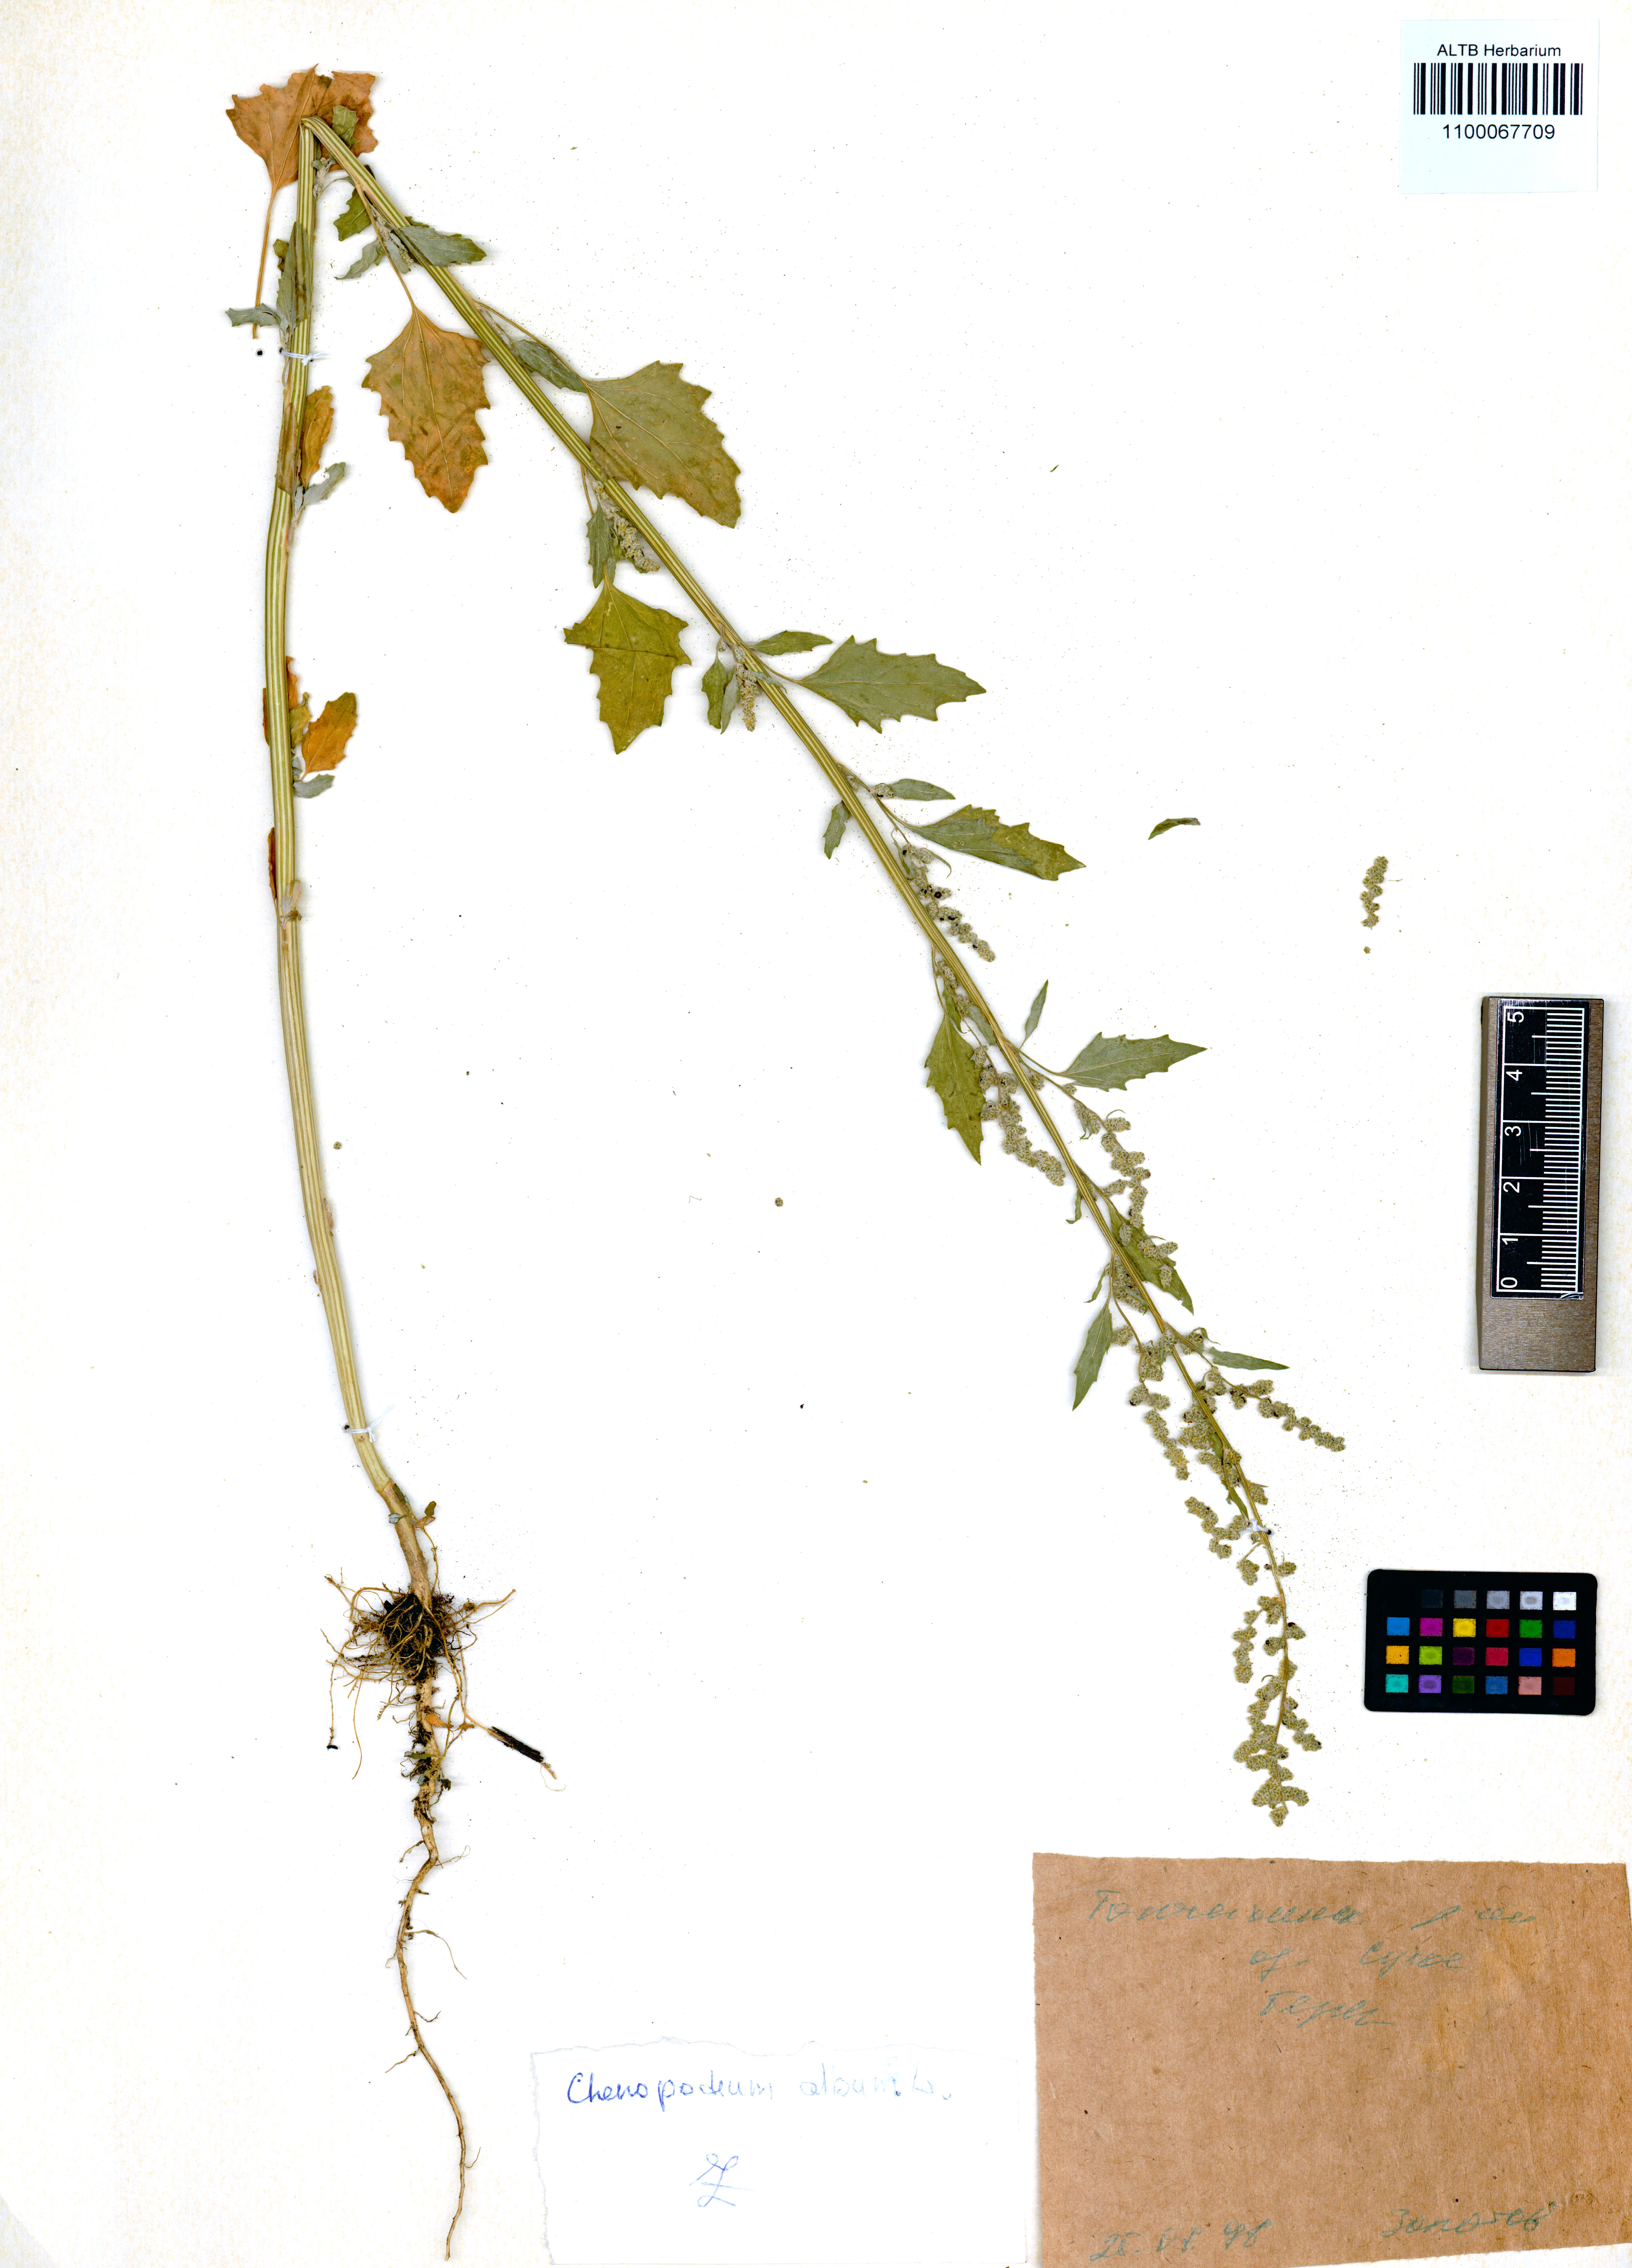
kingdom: Plantae
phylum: Tracheophyta
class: Magnoliopsida
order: Caryophyllales
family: Amaranthaceae
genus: Chenopodium
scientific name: Chenopodium album
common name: Fat-hen
